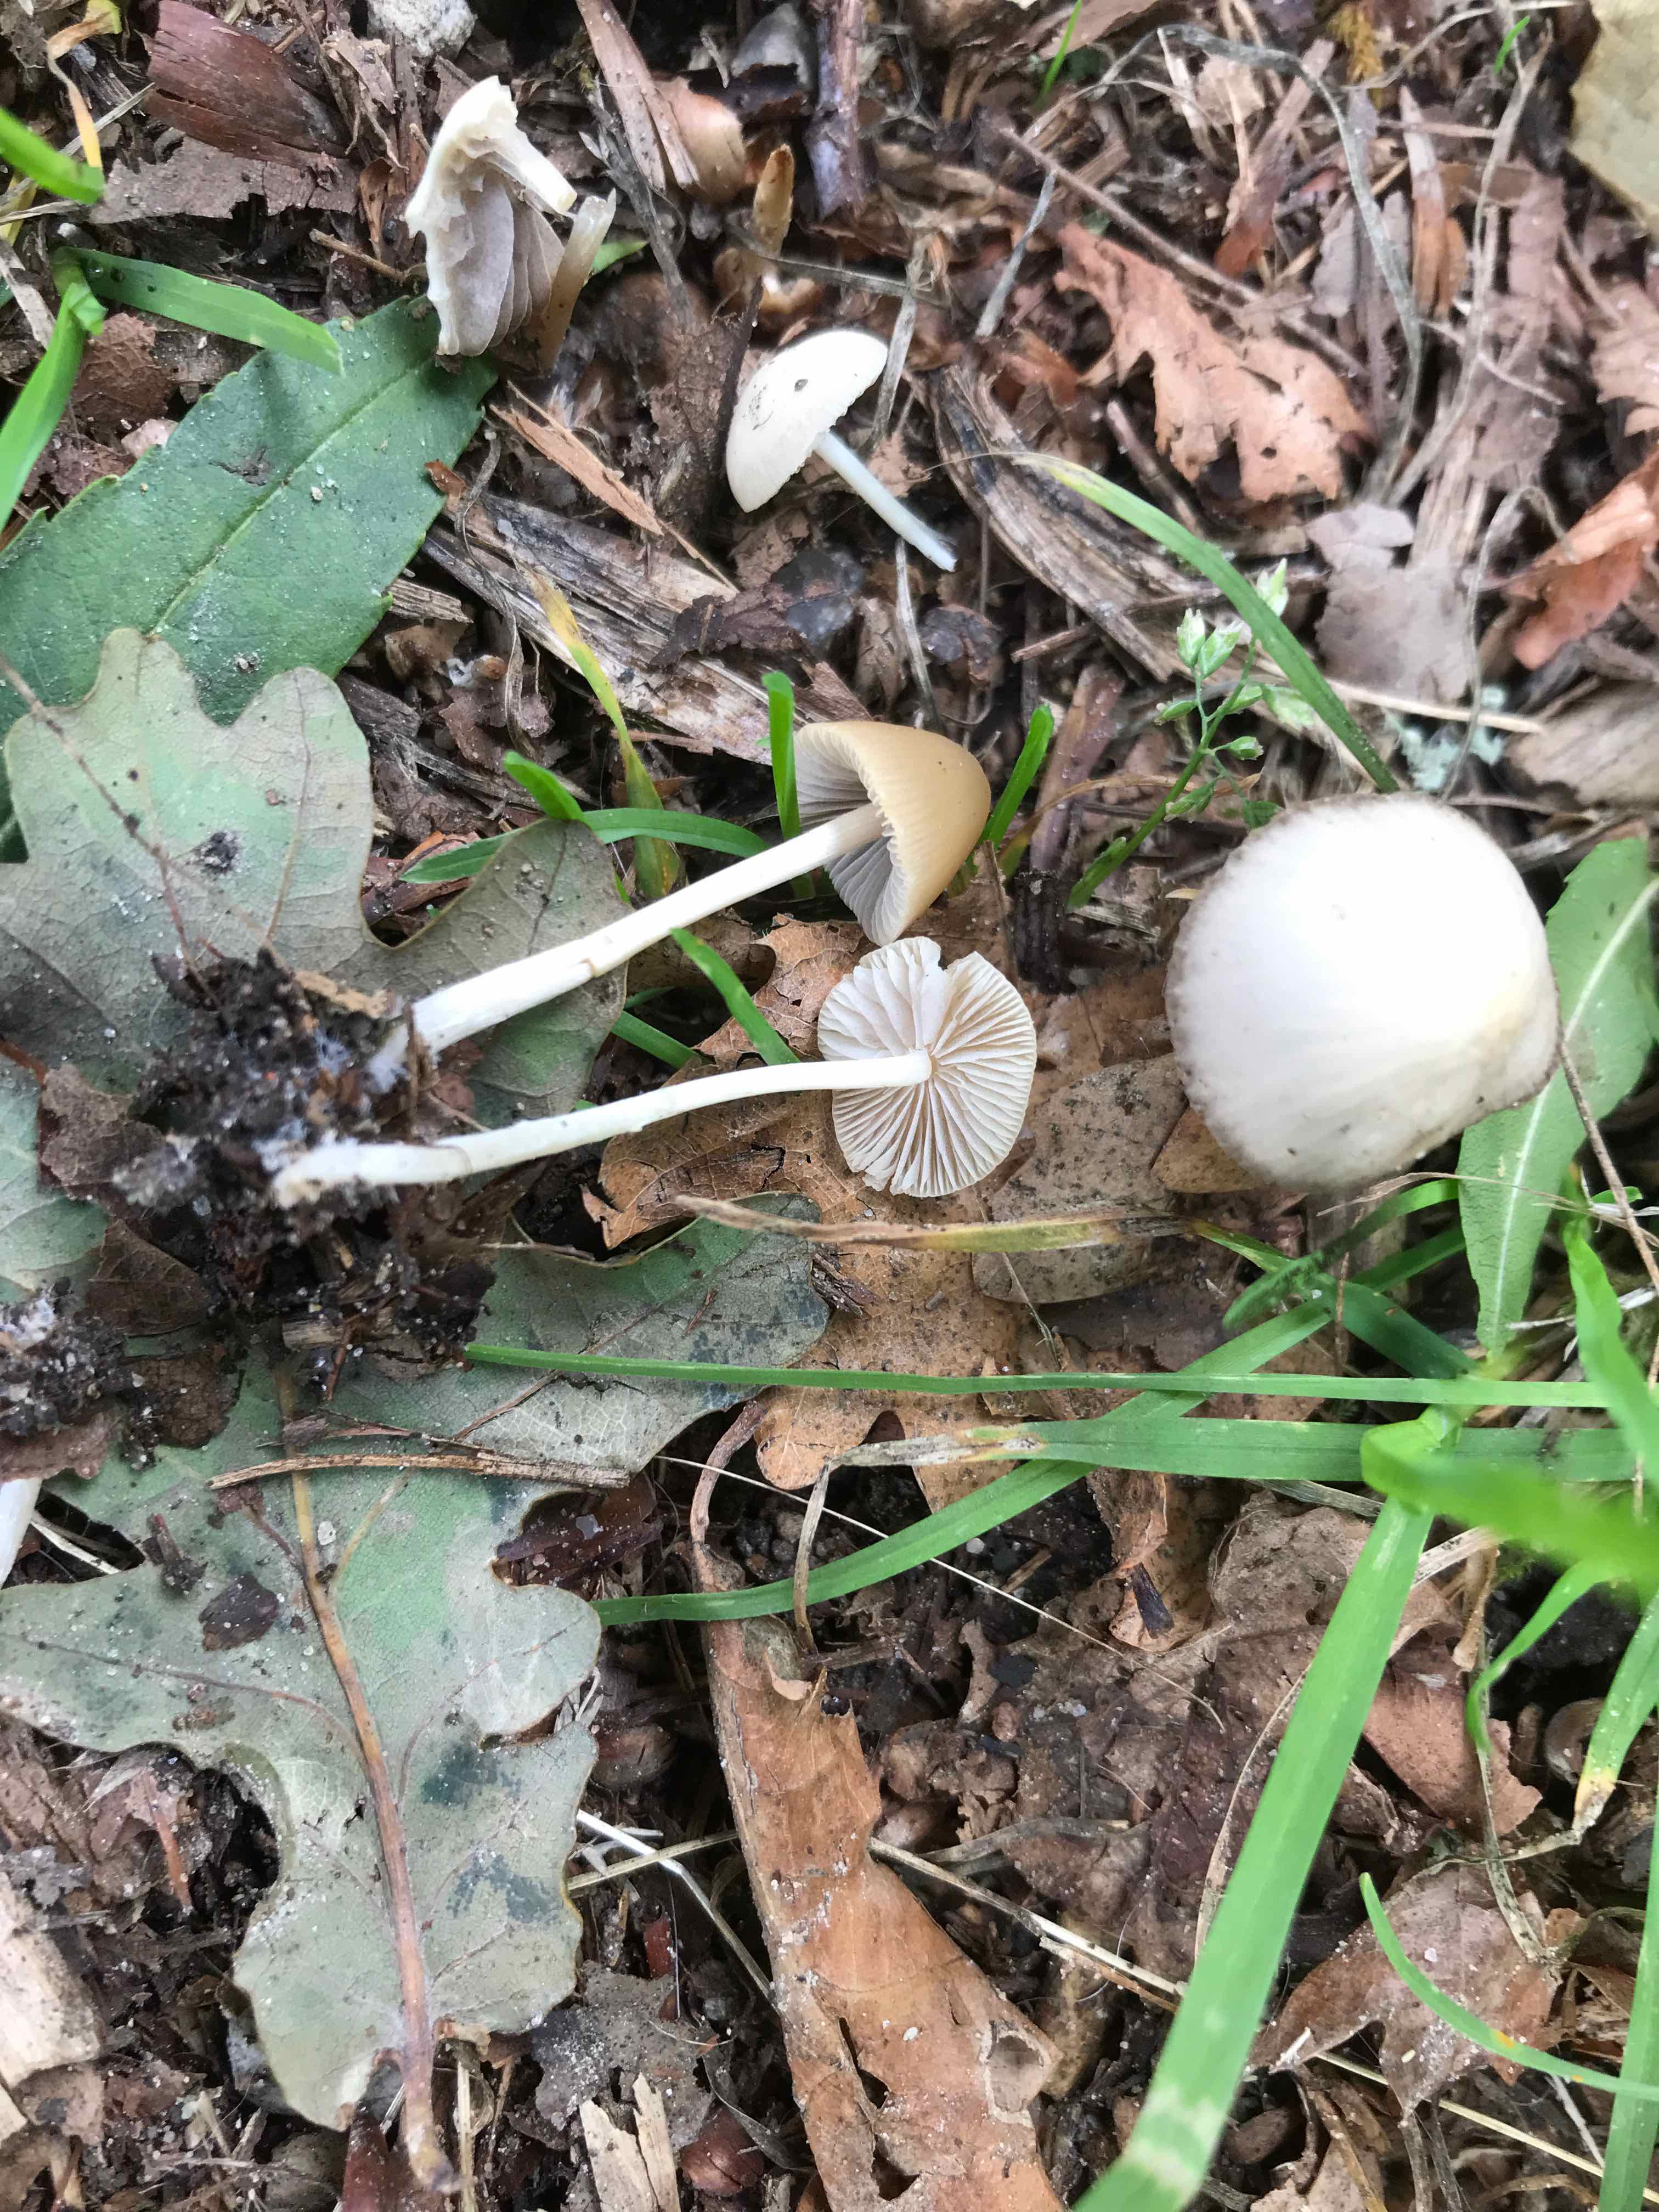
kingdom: Fungi
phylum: Basidiomycota
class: Agaricomycetes
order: Agaricales
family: Psathyrellaceae
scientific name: Psathyrellaceae
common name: mørkhatfamilien
